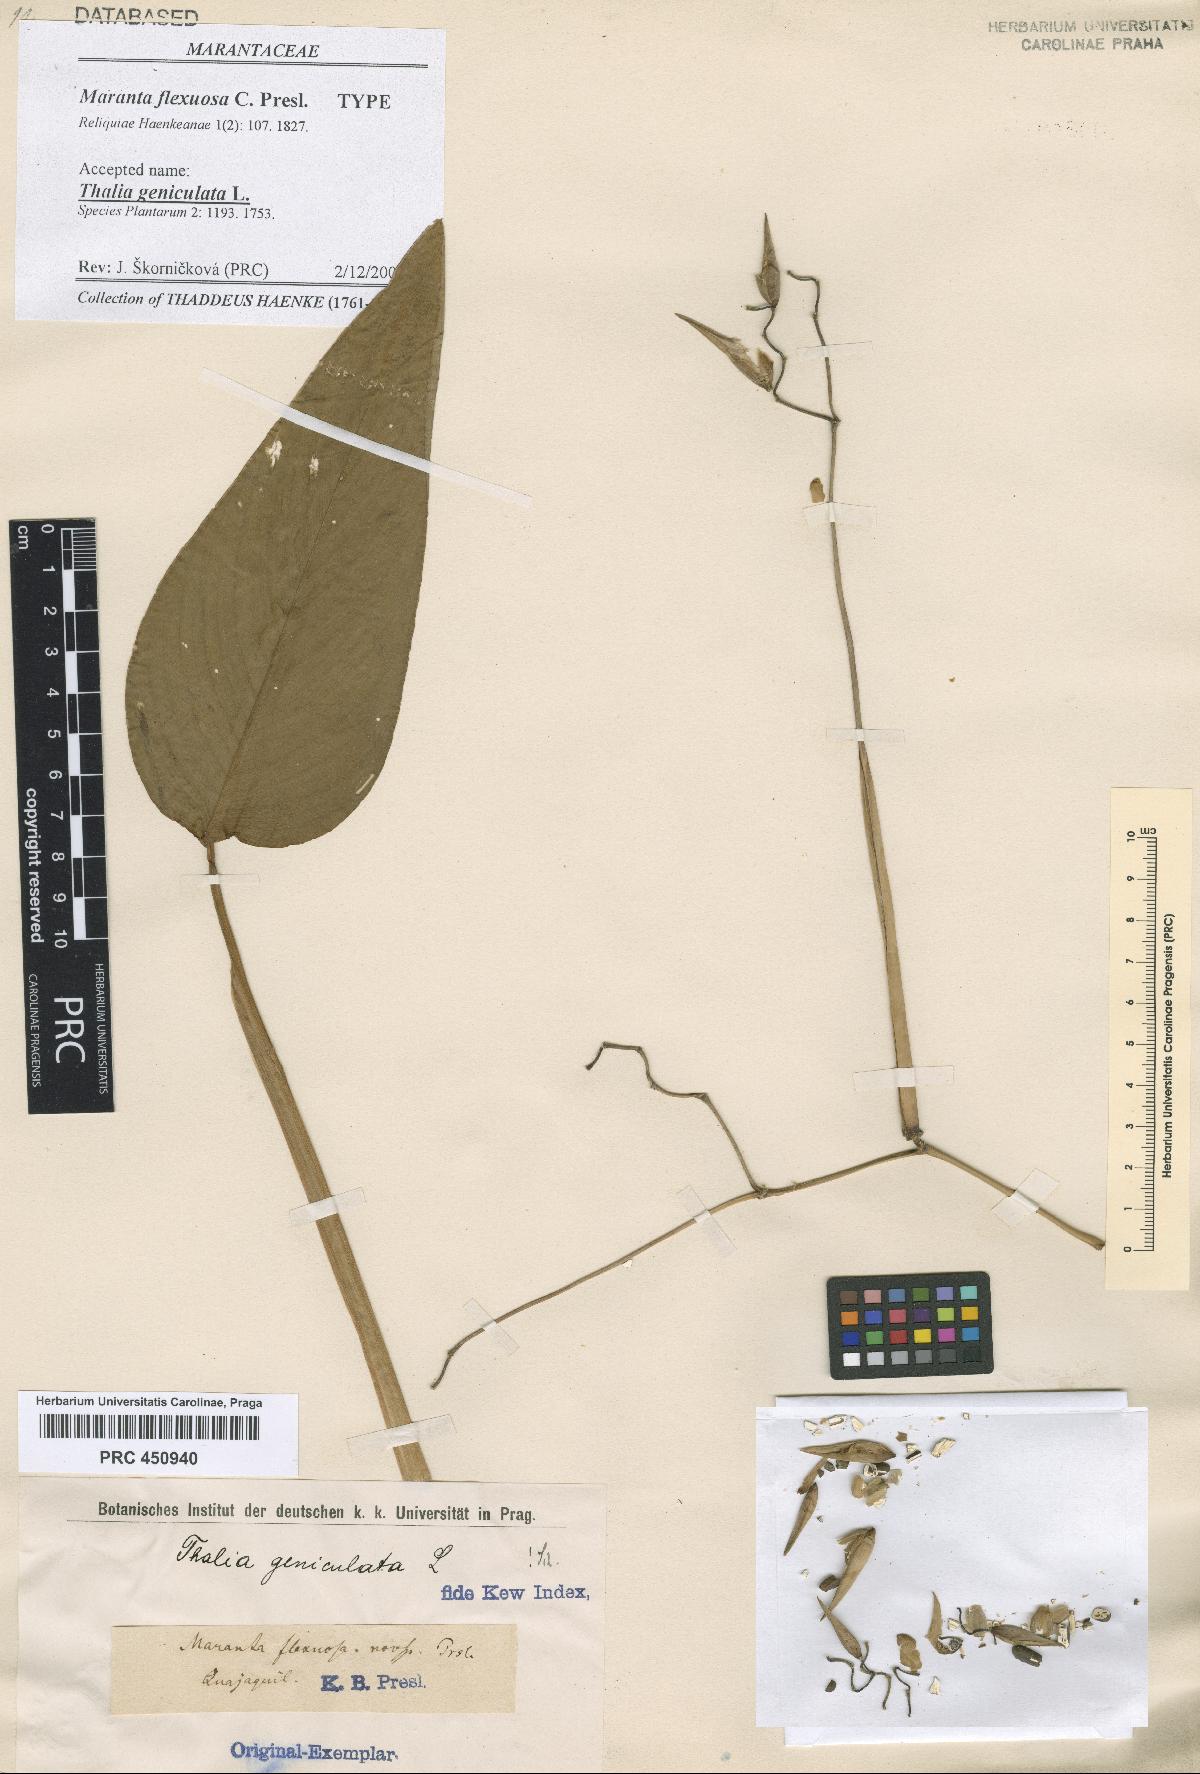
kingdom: Plantae
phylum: Tracheophyta
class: Liliopsida
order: Zingiberales
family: Marantaceae
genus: Thalia
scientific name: Thalia geniculata
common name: Arrowroot
